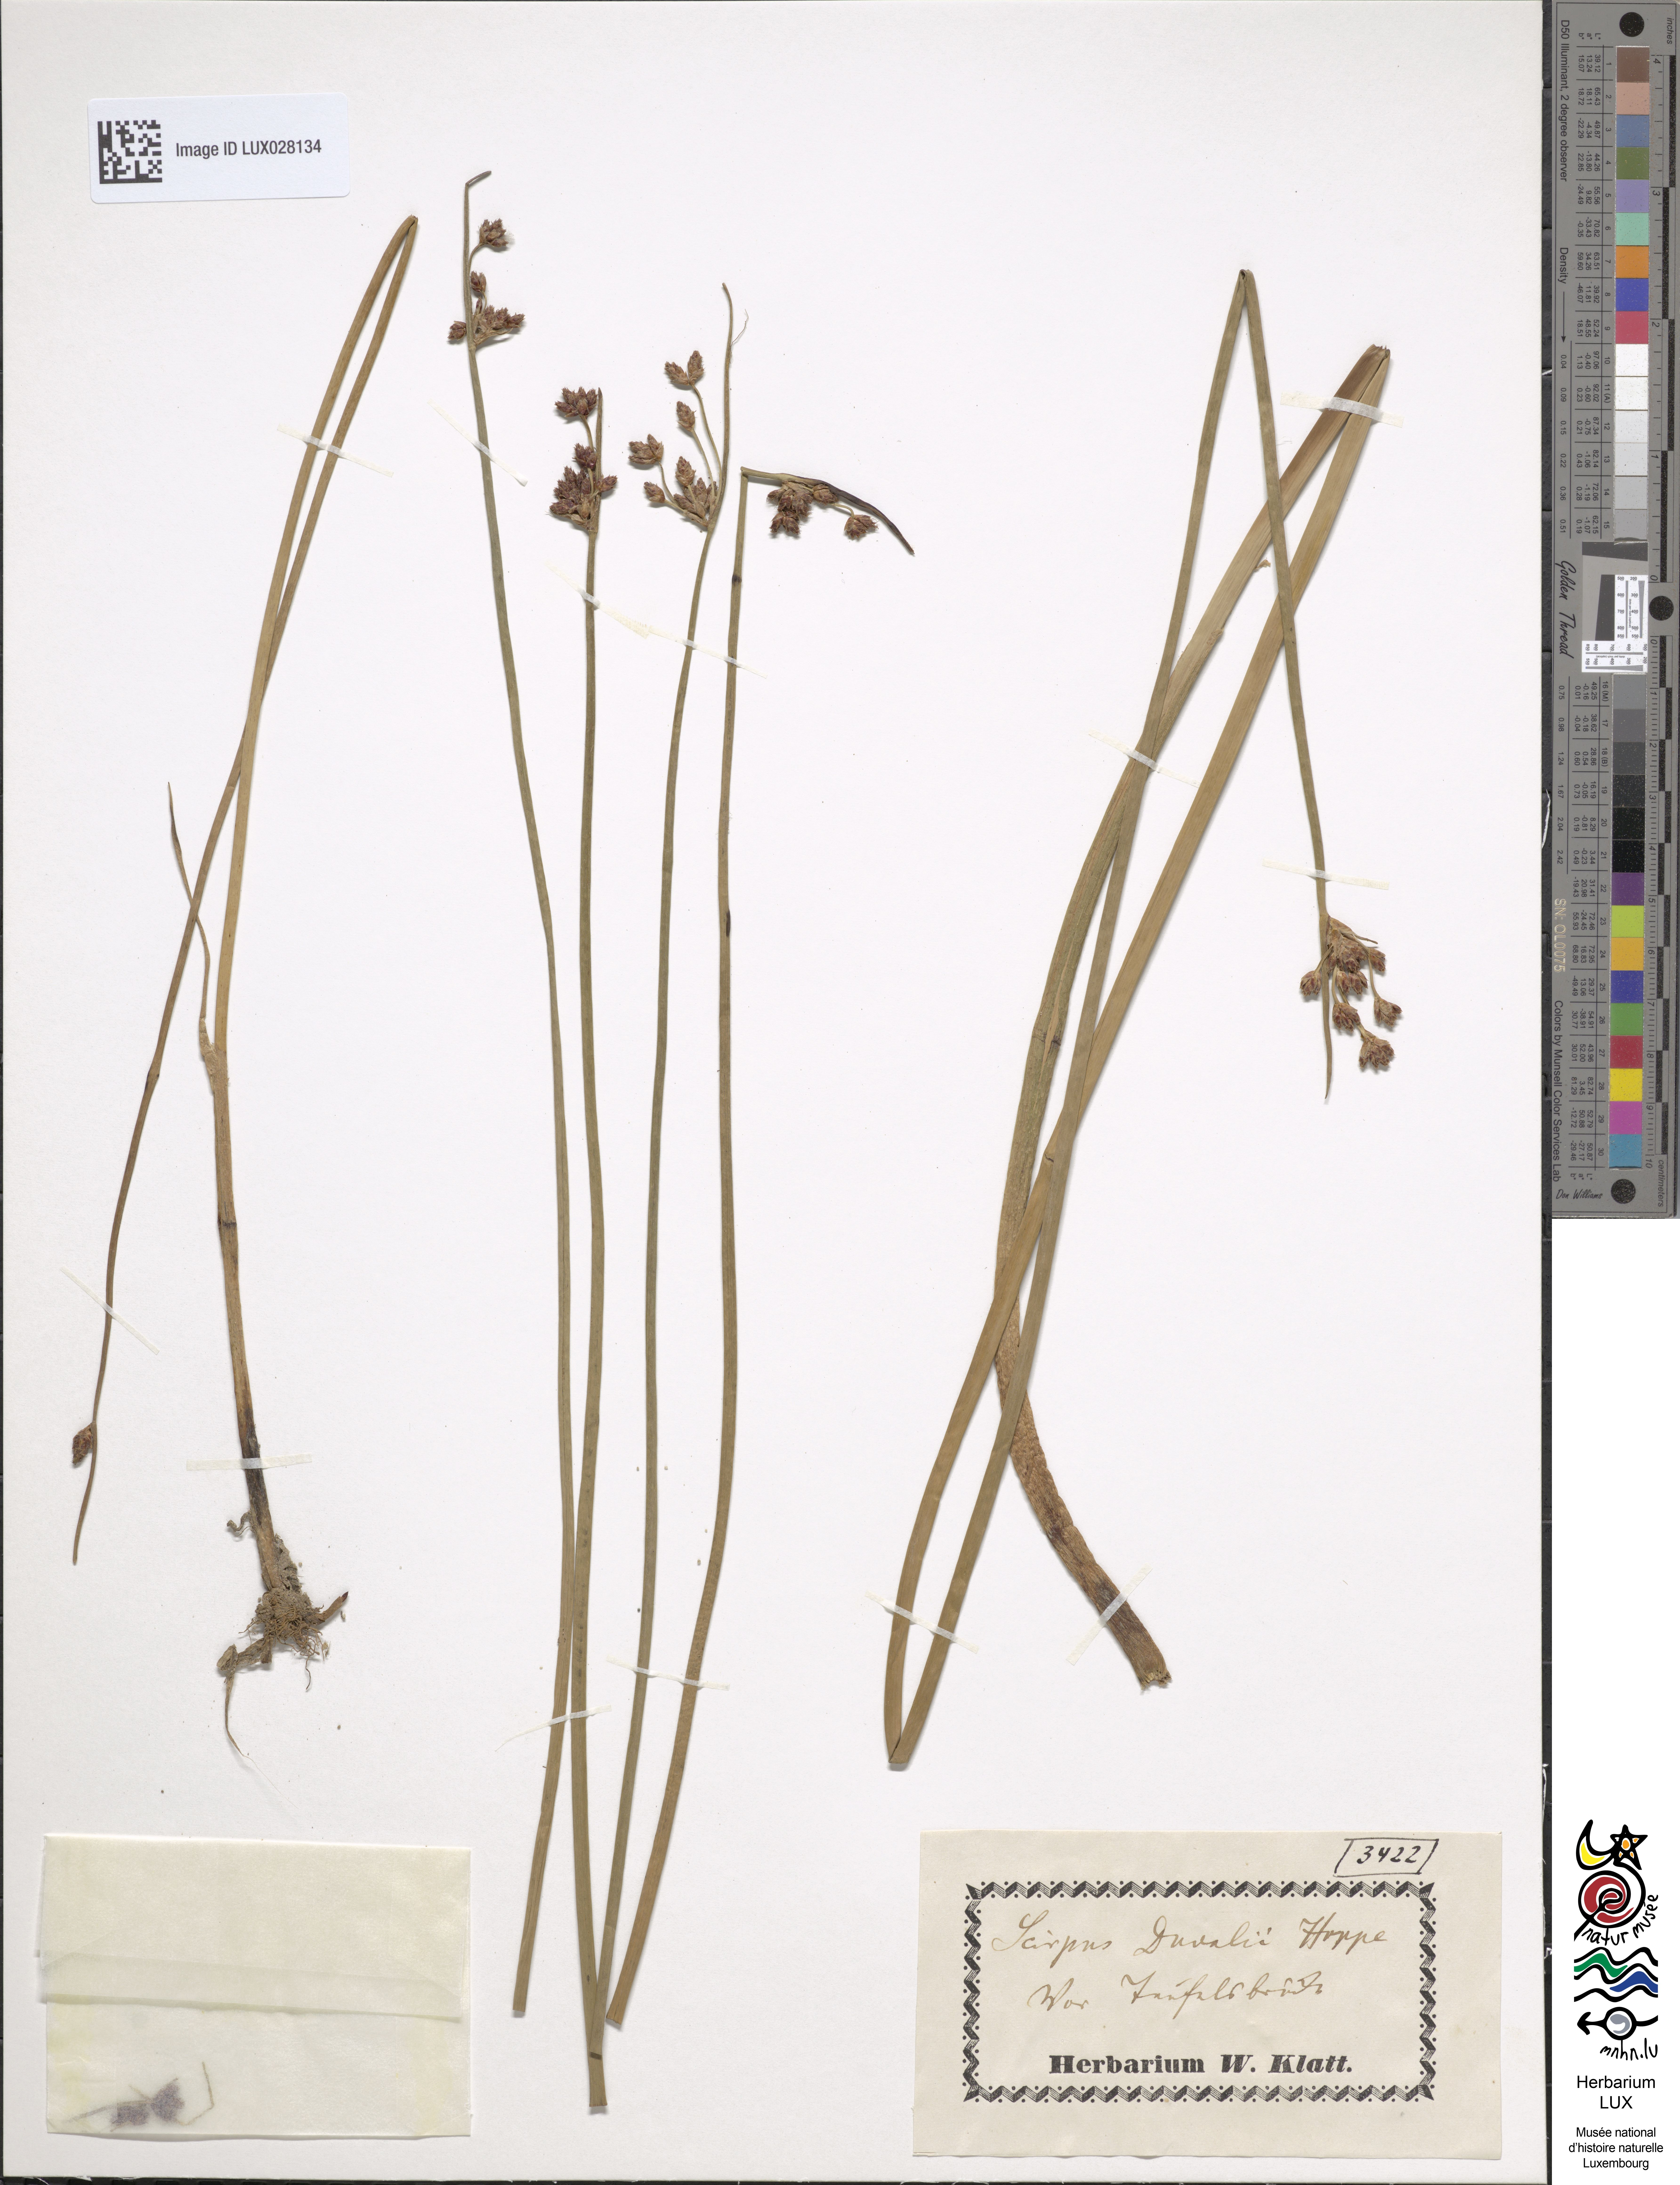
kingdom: Plantae
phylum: Tracheophyta
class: Liliopsida
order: Poales
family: Cyperaceae
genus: Schoenoplectus
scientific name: Schoenoplectus carinatus
